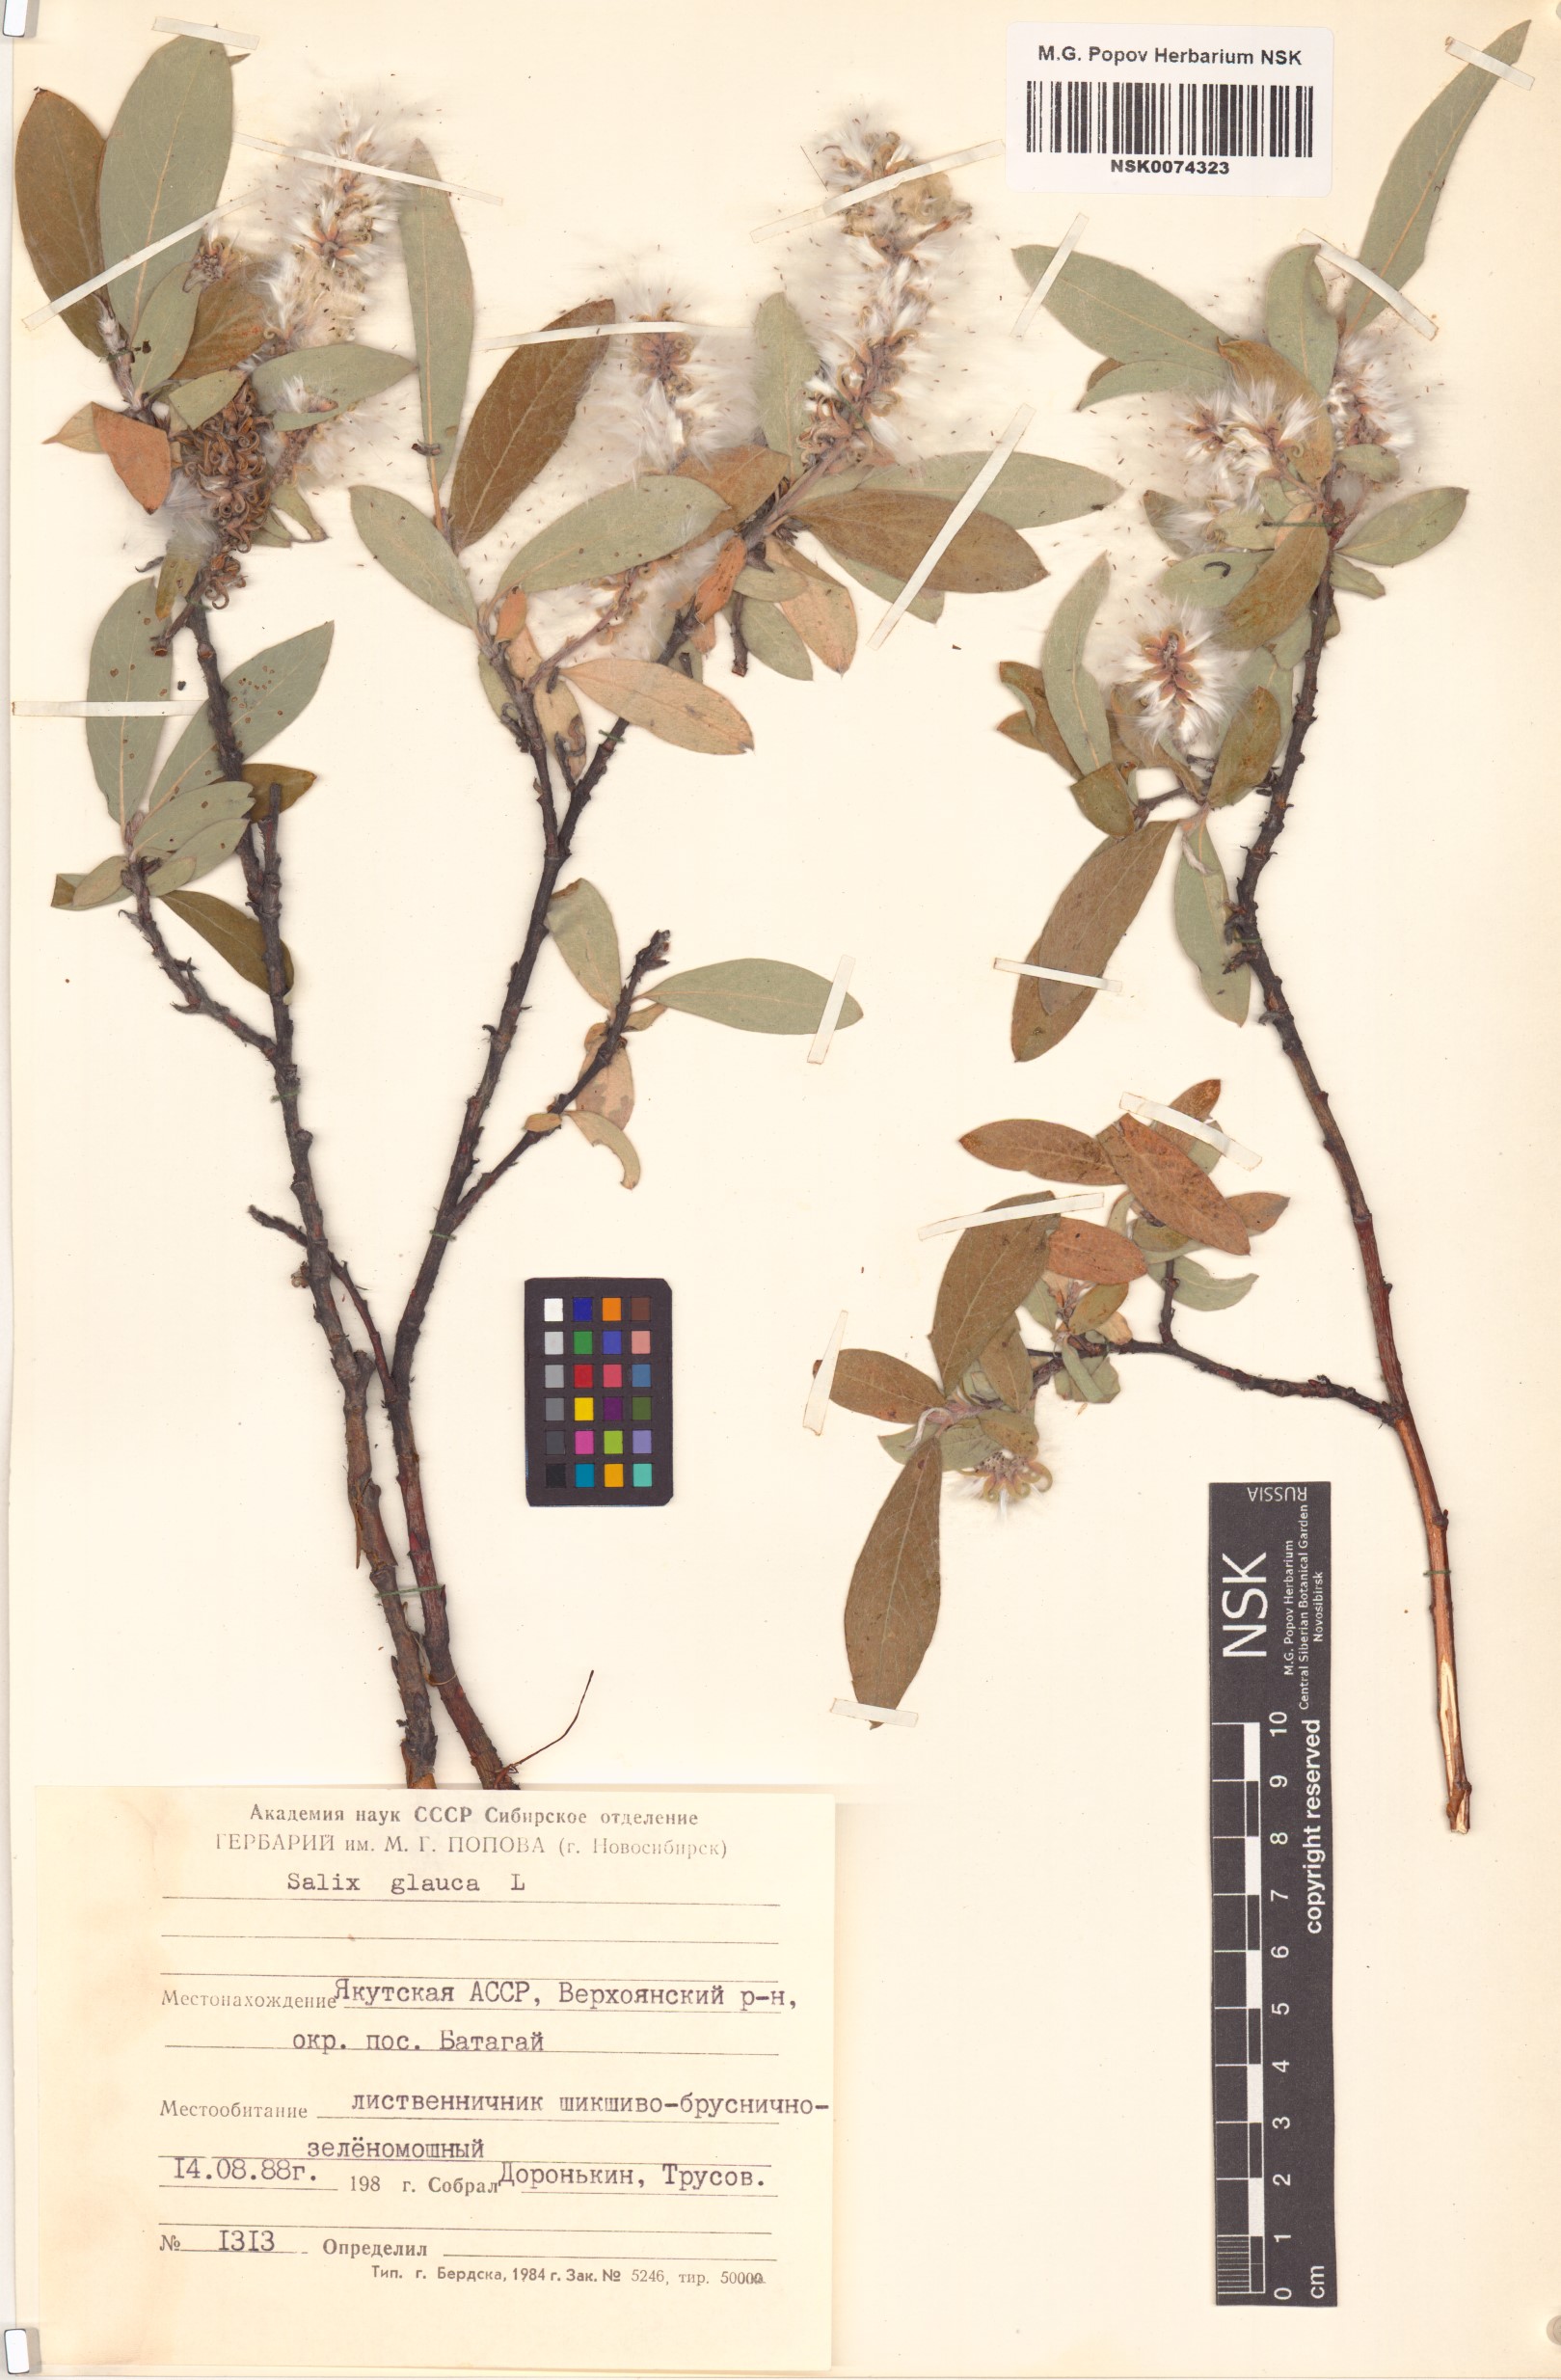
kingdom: Plantae
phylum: Tracheophyta
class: Magnoliopsida
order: Malpighiales
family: Salicaceae
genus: Salix
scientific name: Salix glauca
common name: Glaucous willow
